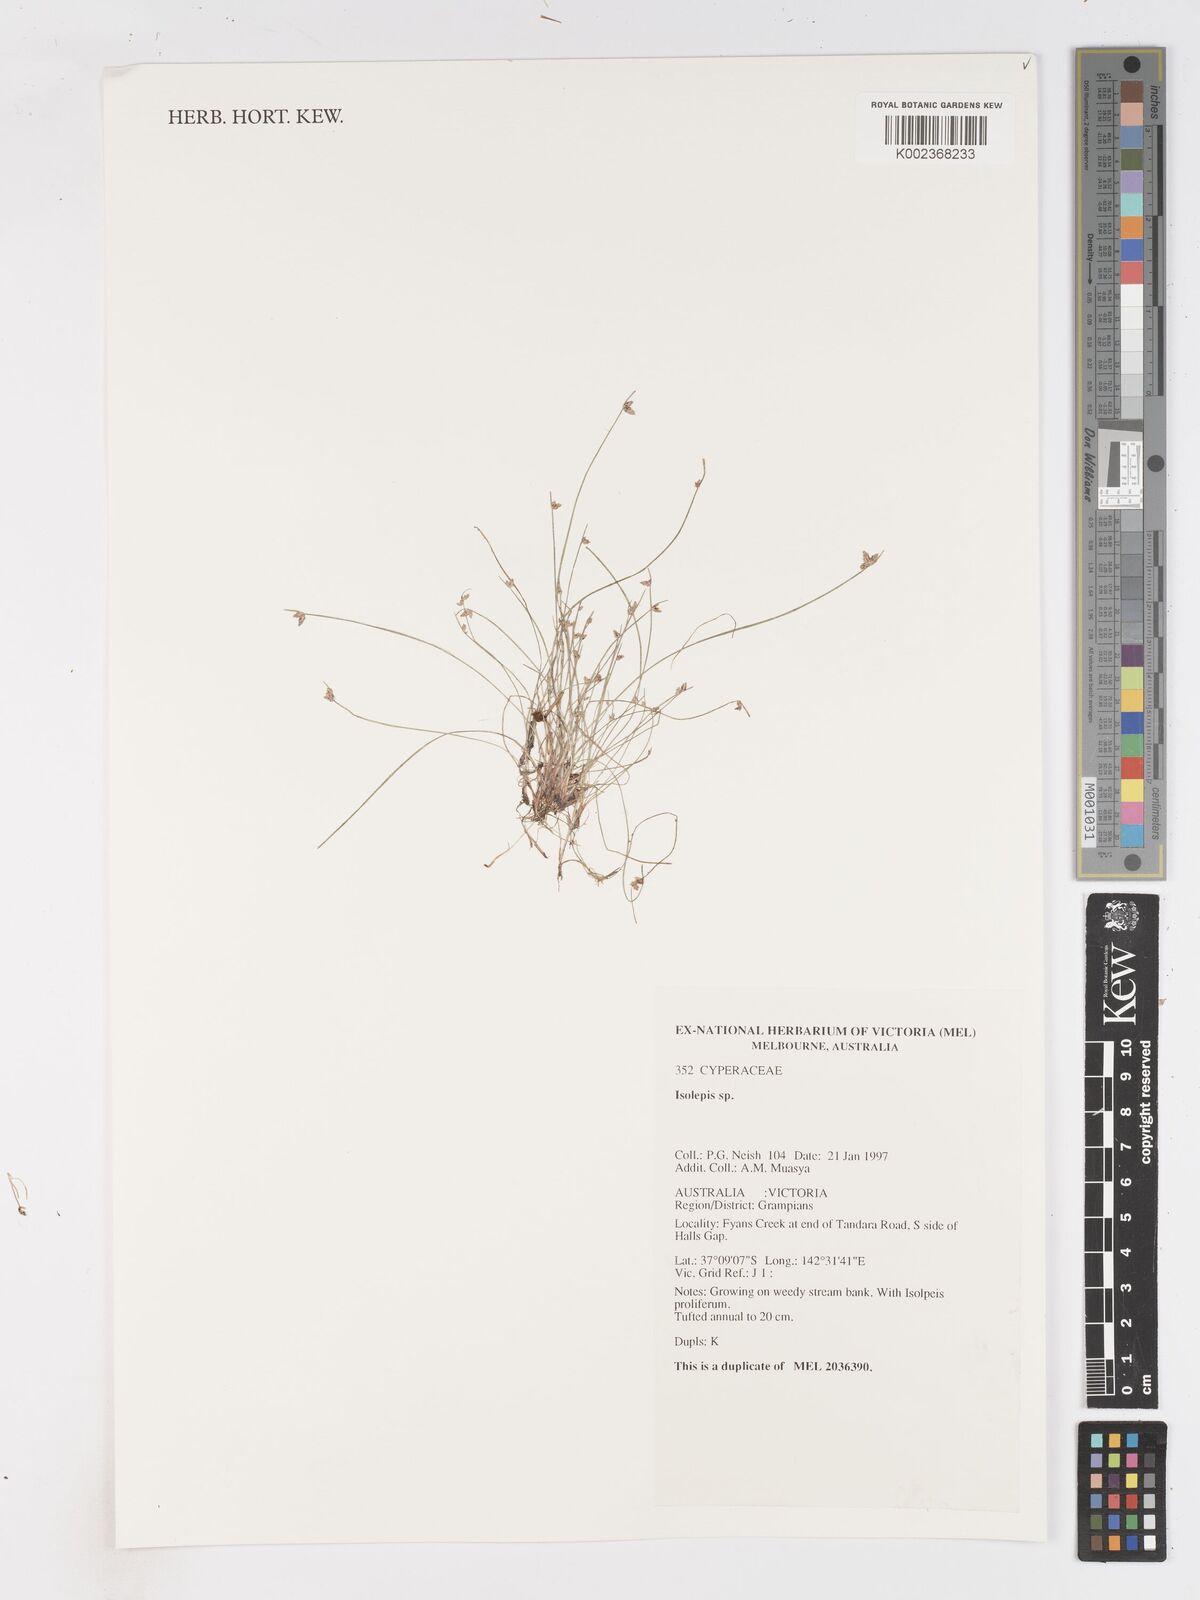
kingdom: Plantae
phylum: Tracheophyta
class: Liliopsida
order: Poales
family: Cyperaceae
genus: Isolepis
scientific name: Isolepis
